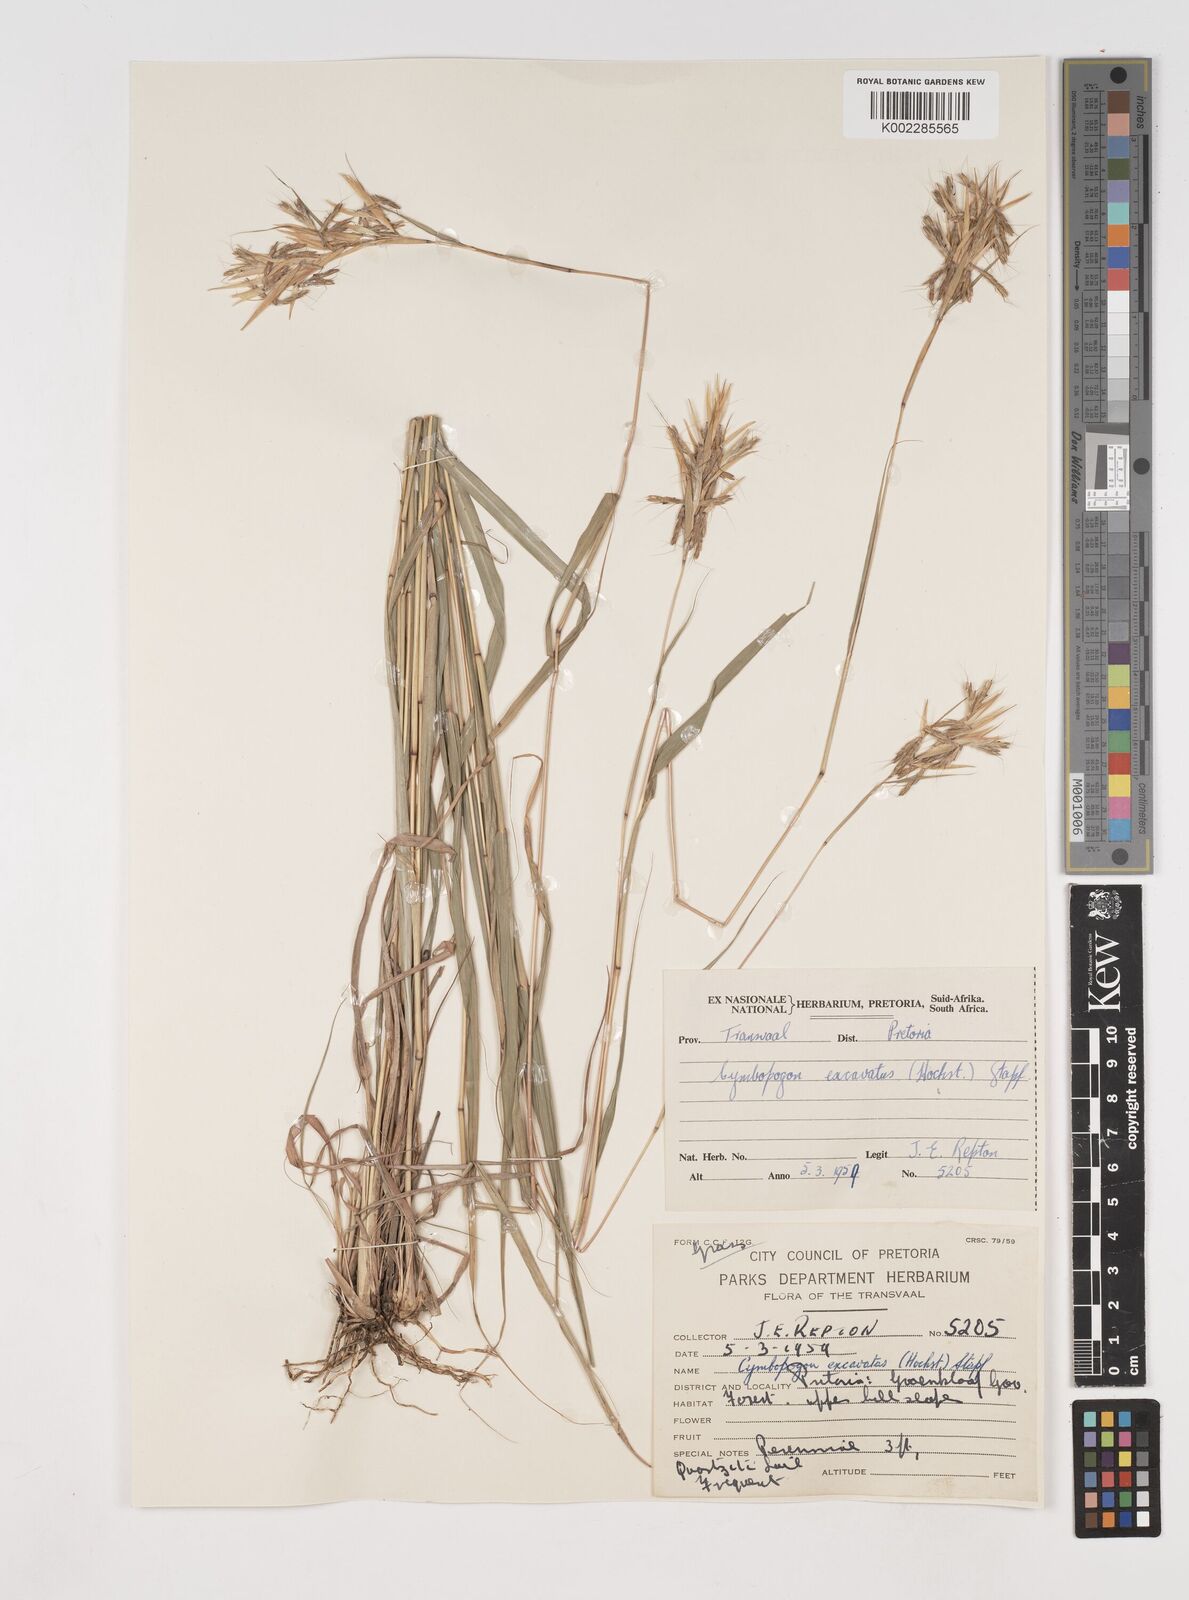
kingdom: Plantae
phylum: Tracheophyta
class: Liliopsida
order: Poales
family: Poaceae
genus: Cymbopogon
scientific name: Cymbopogon caesius
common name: Kachi grass
